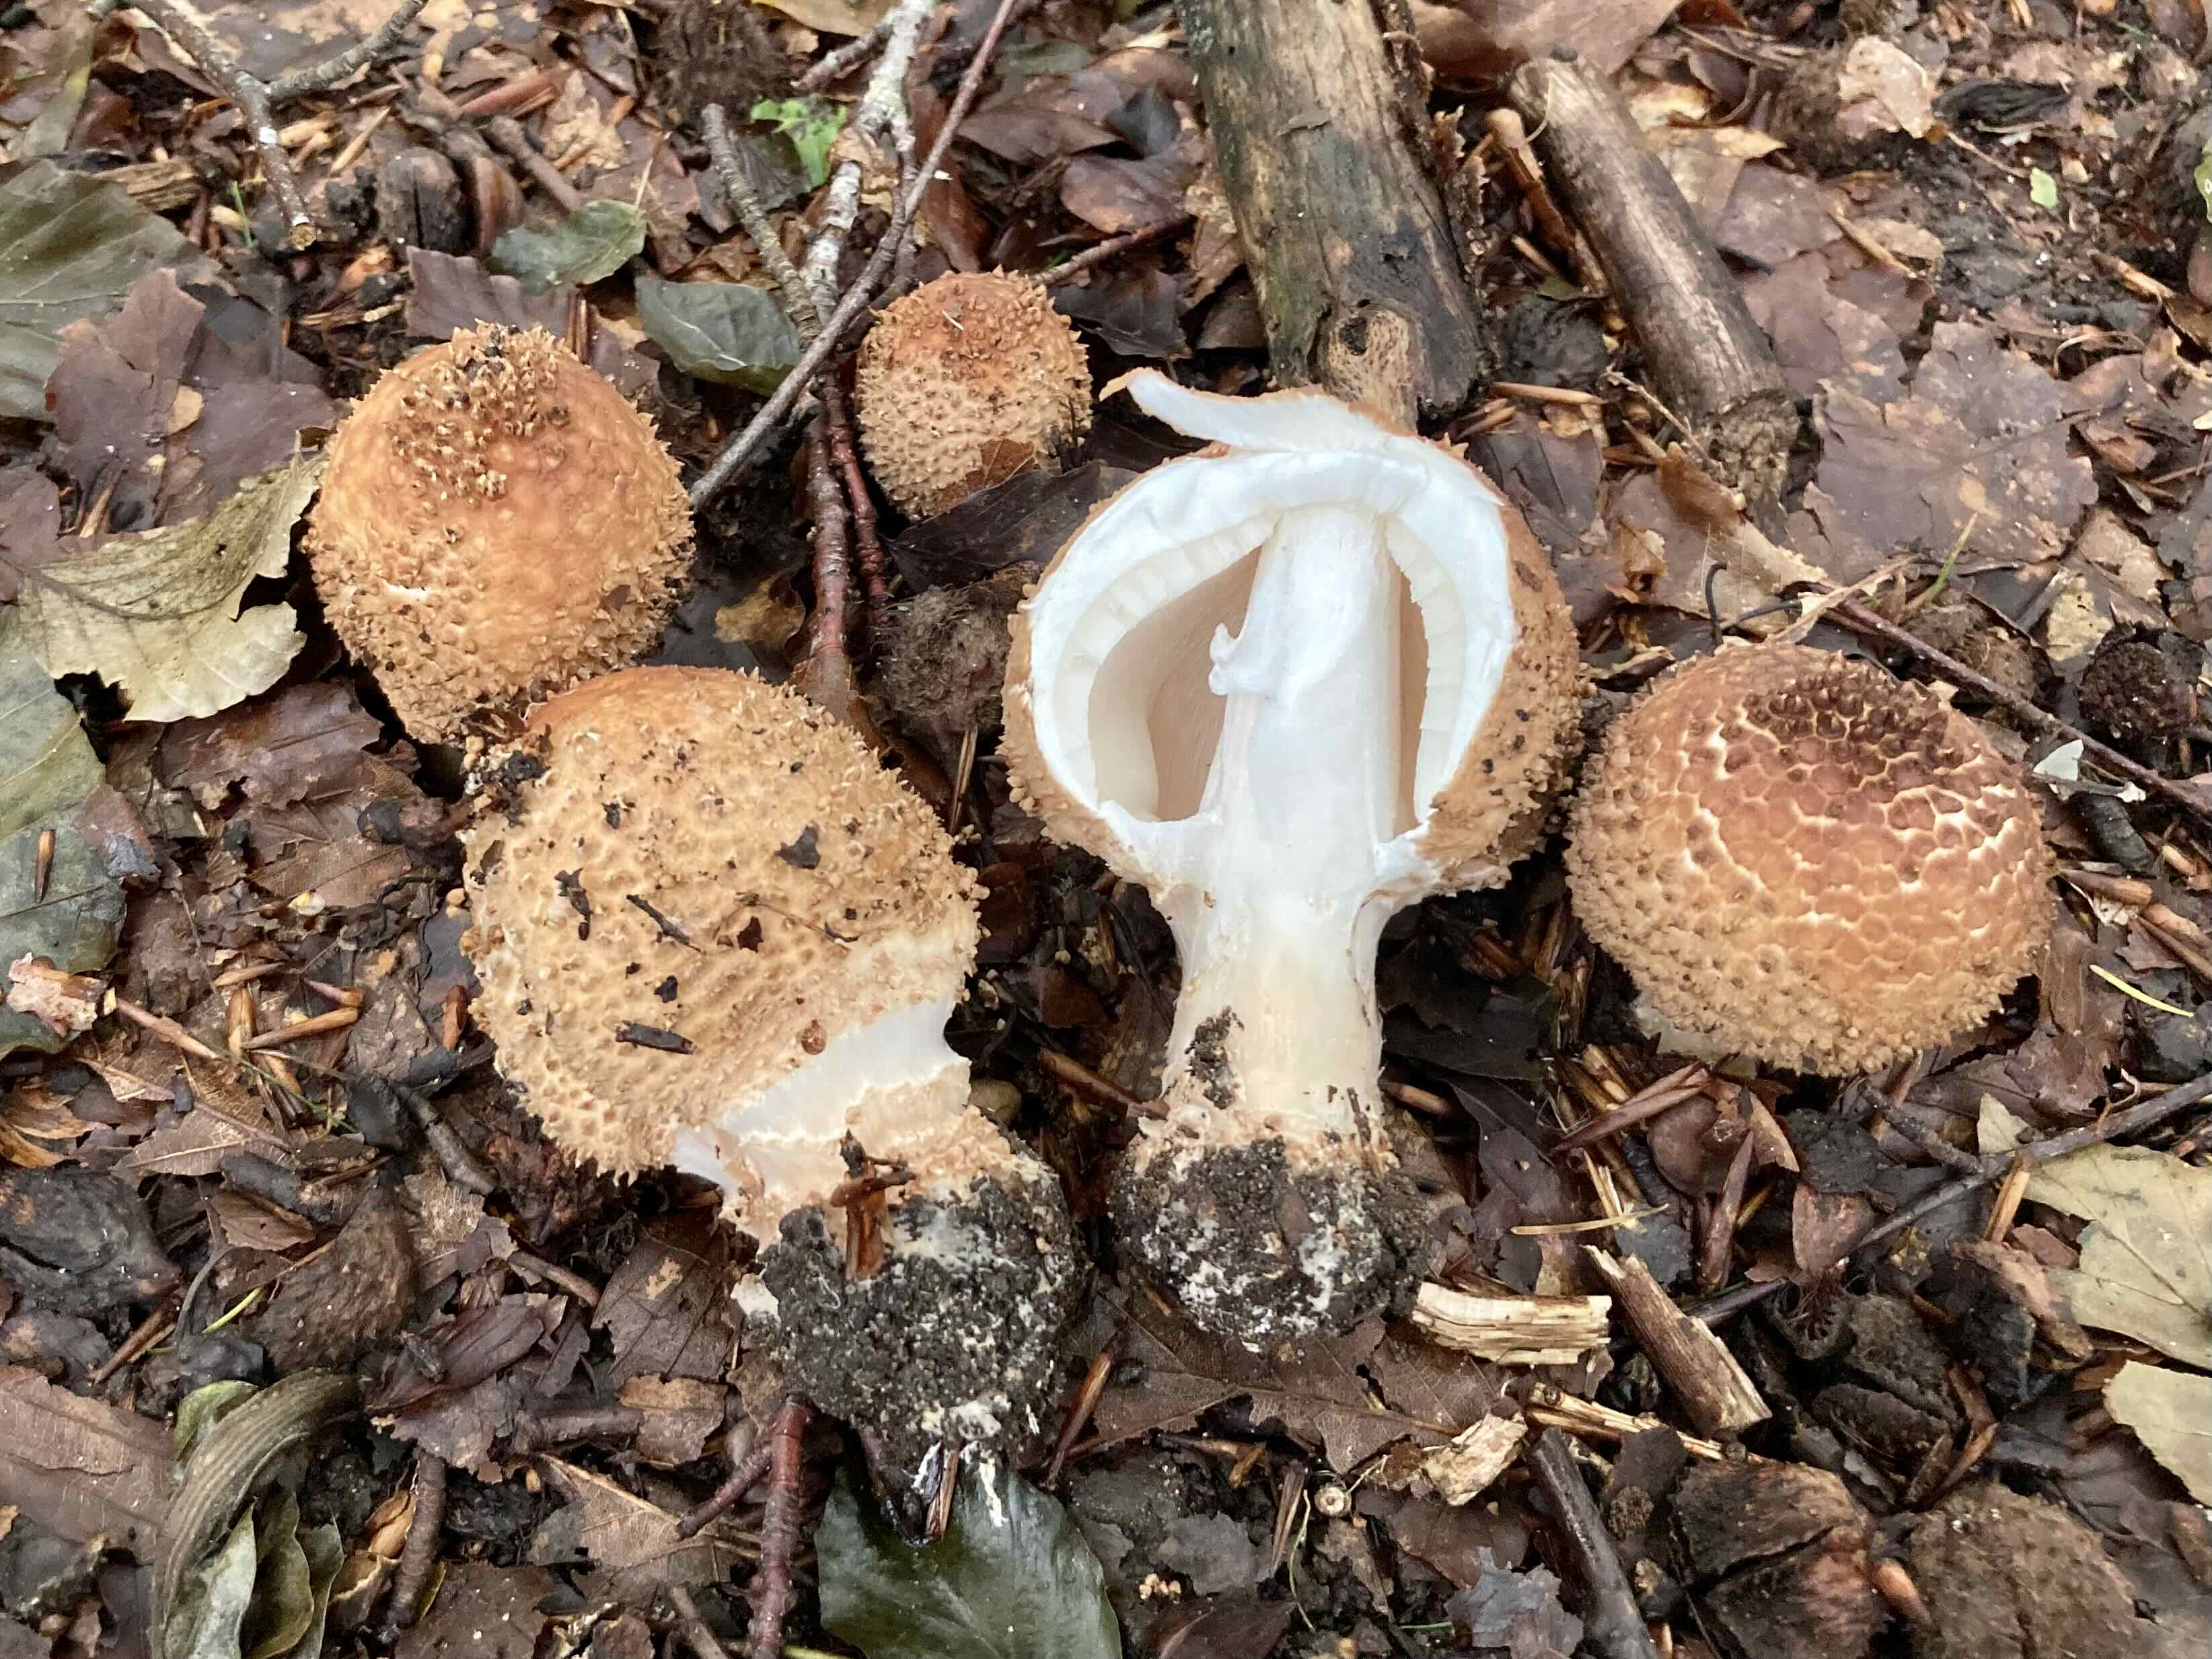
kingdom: Fungi
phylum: Basidiomycota
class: Agaricomycetes
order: Agaricales
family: Agaricaceae
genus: Echinoderma
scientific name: Echinoderma asperum
